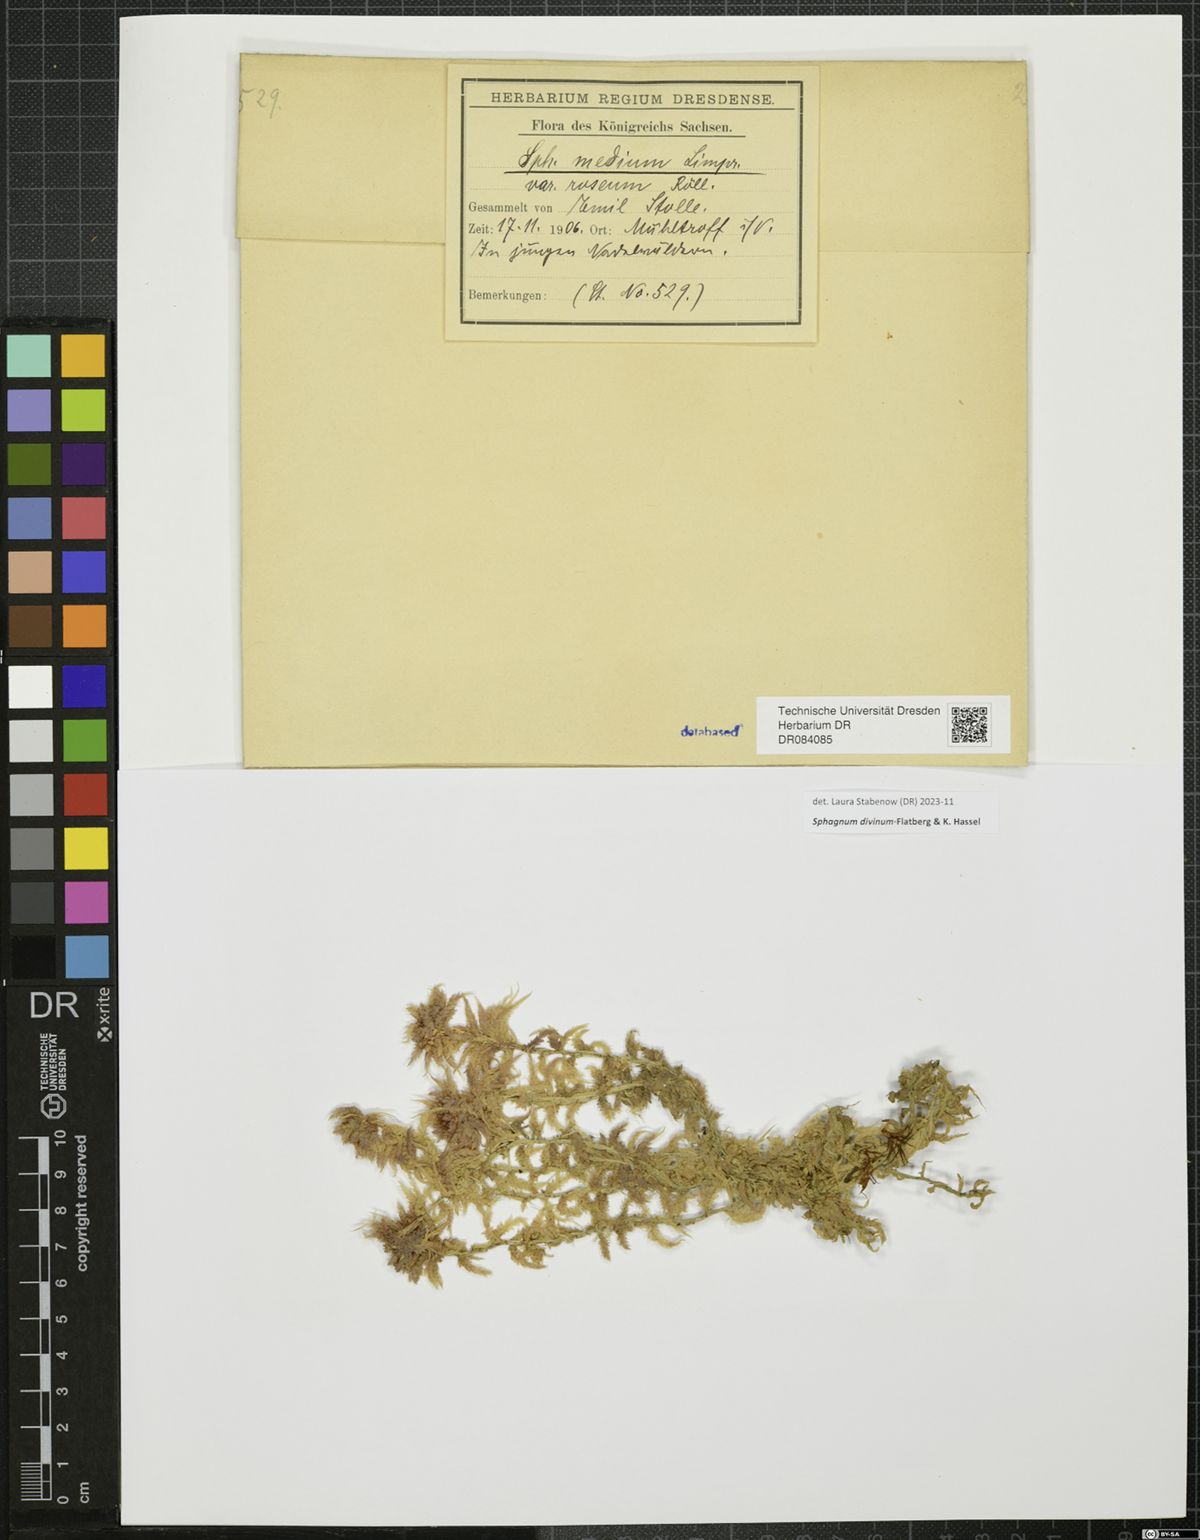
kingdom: Plantae
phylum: Bryophyta
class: Sphagnopsida
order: Sphagnales
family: Sphagnaceae
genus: Sphagnum
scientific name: Sphagnum divinum
